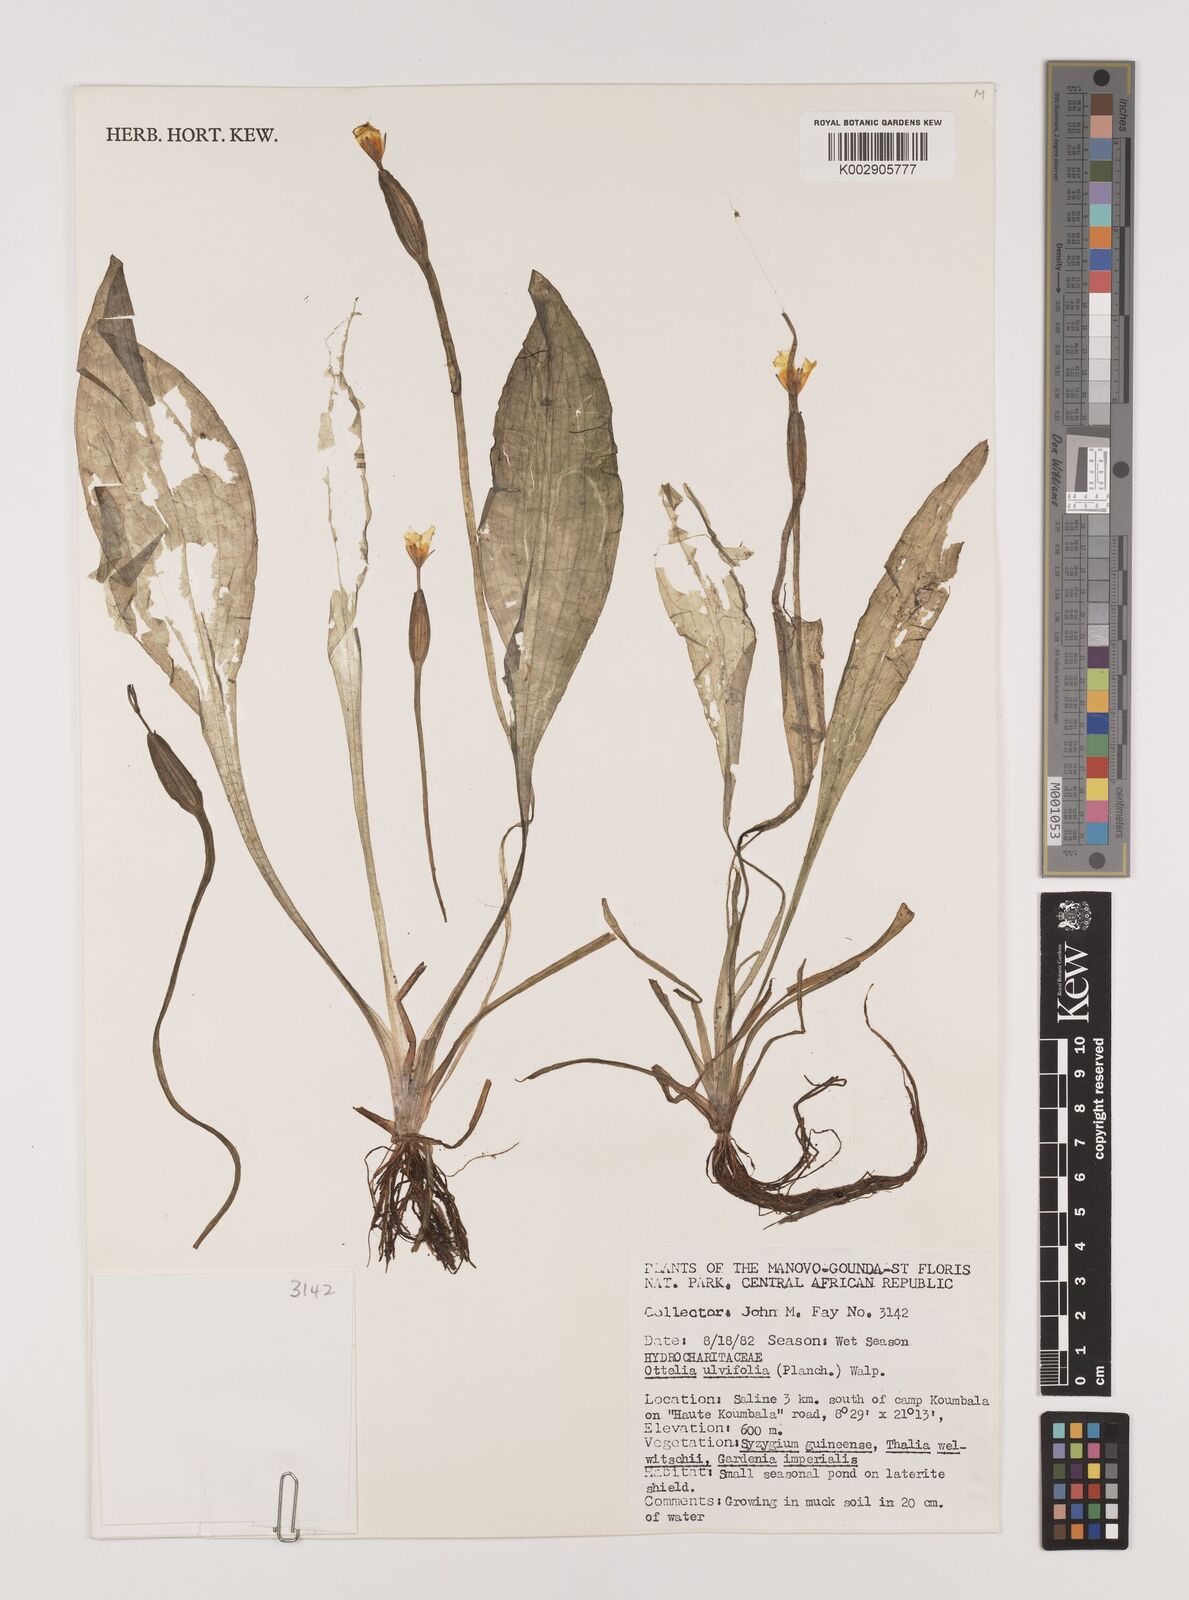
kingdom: Plantae
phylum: Tracheophyta
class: Liliopsida
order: Alismatales
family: Hydrocharitaceae
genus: Ottelia
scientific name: Ottelia ulvifolia
